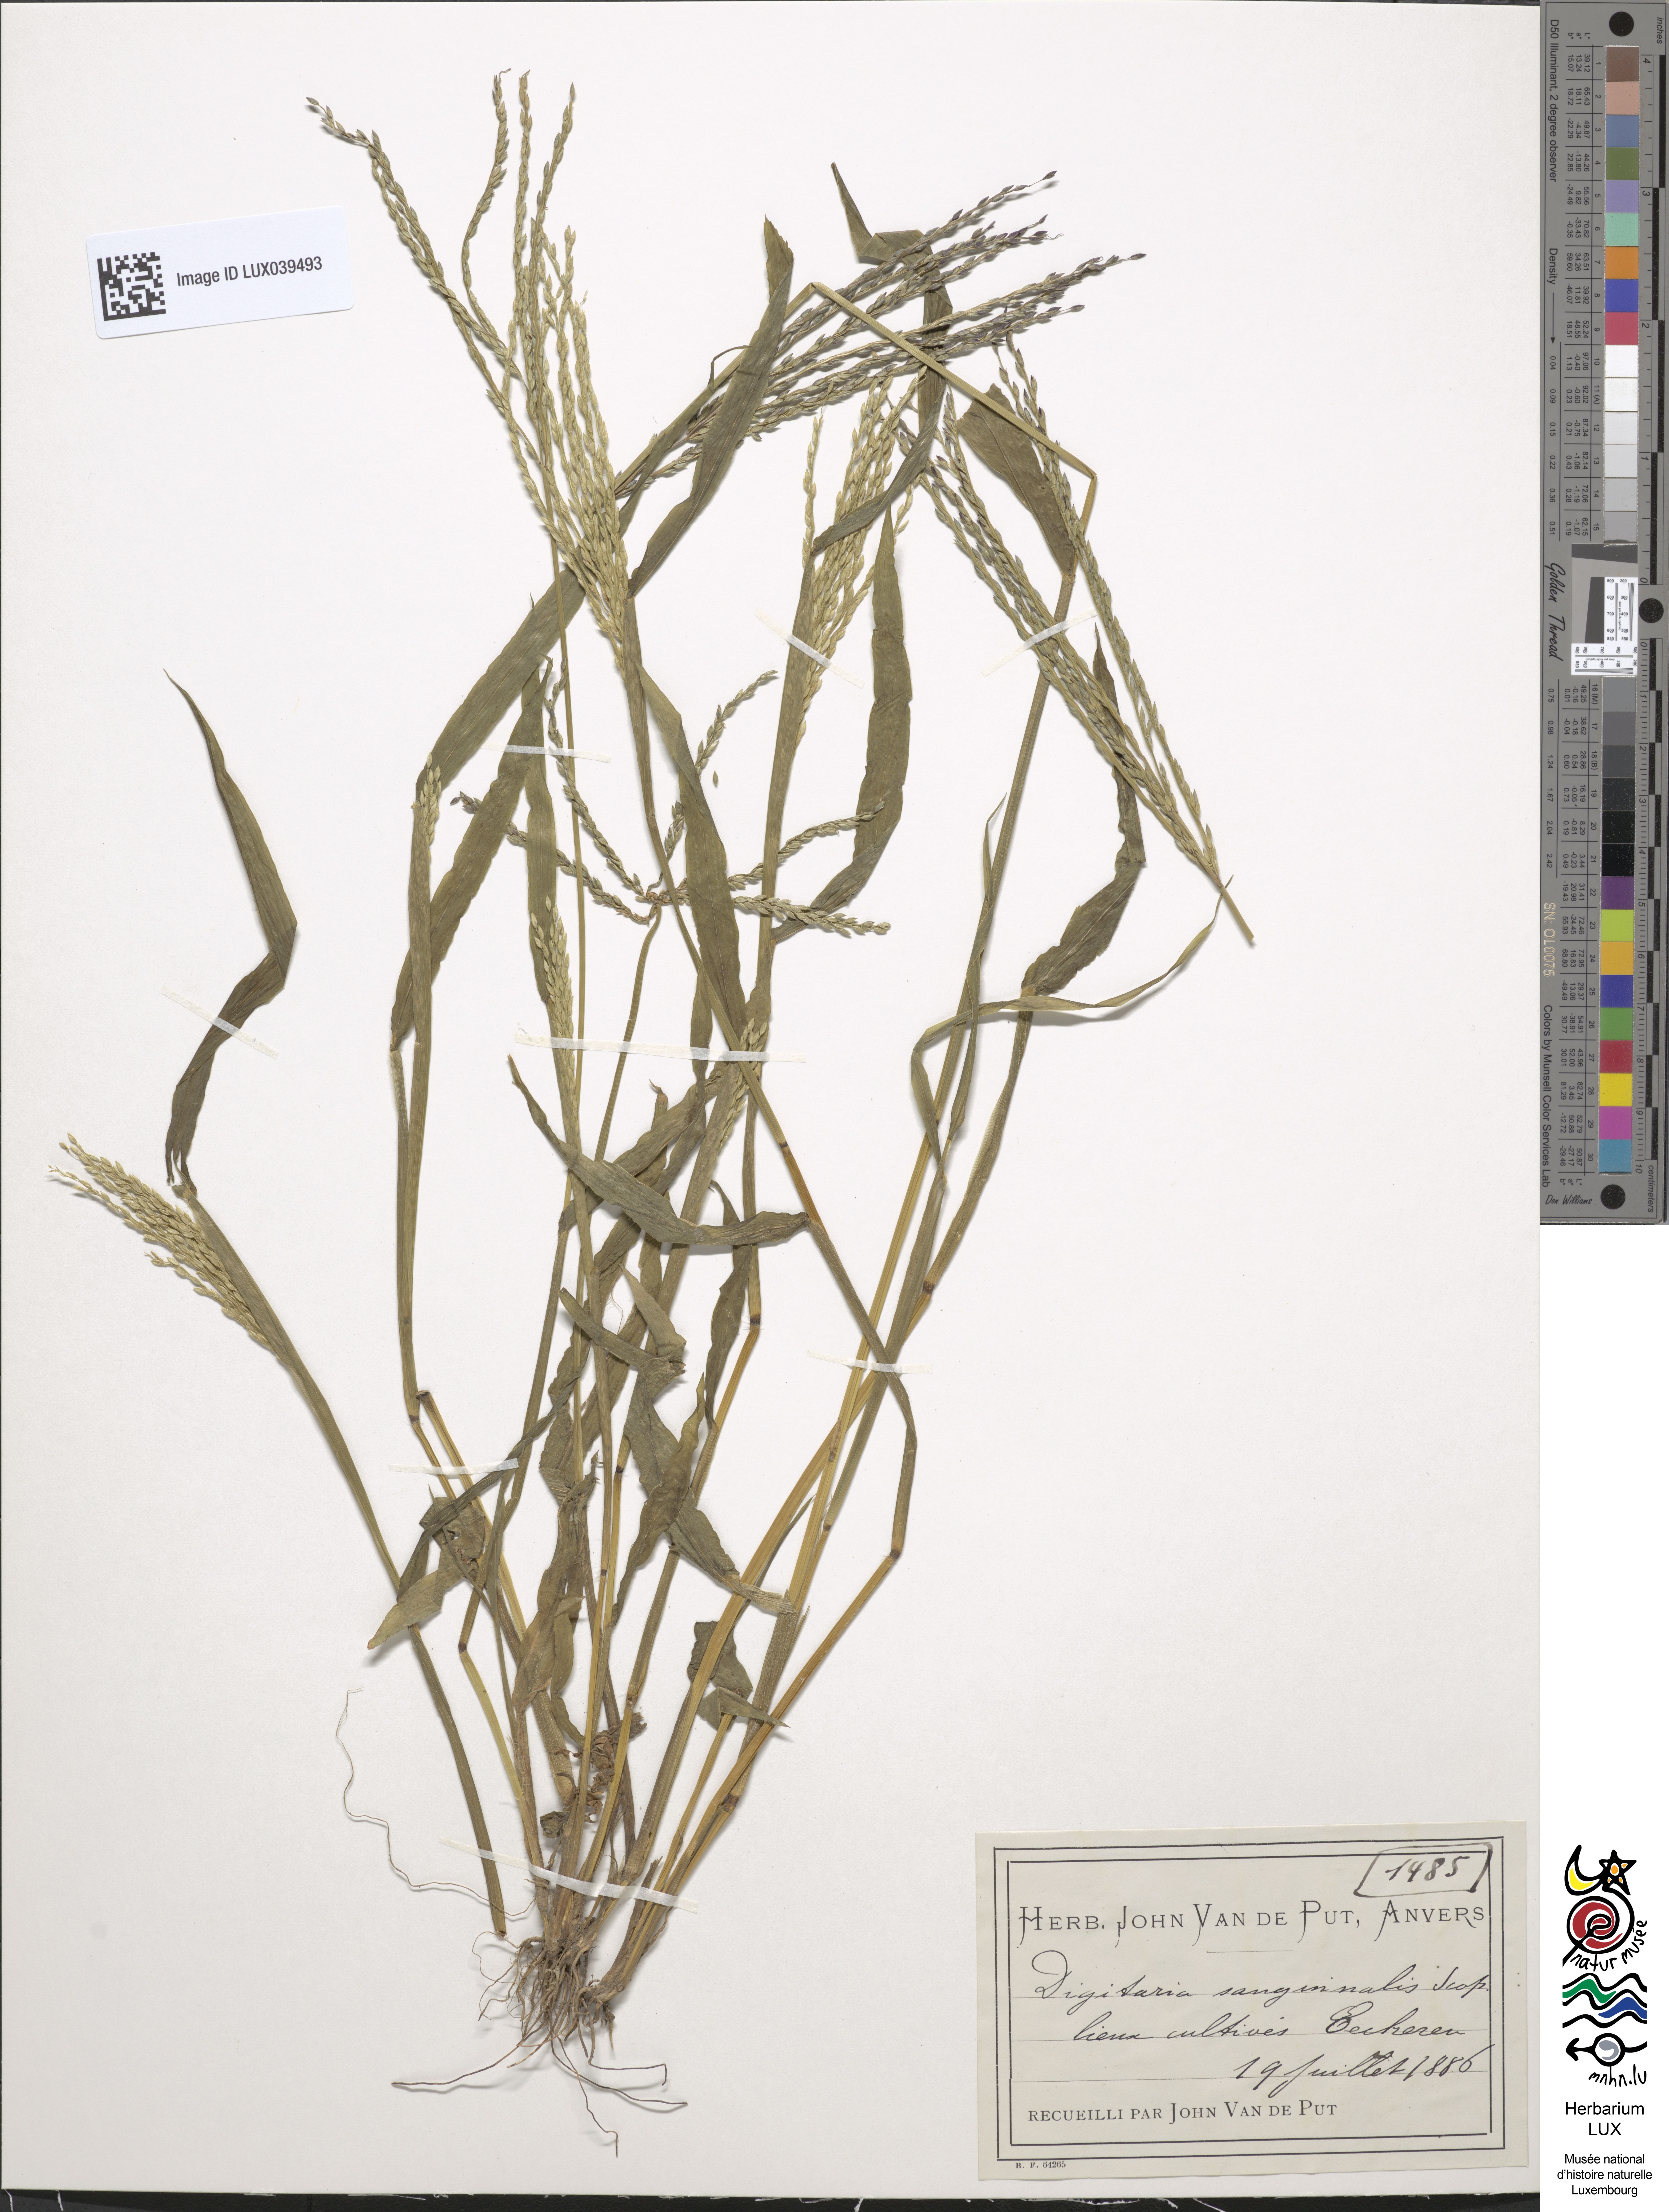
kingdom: Plantae
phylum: Tracheophyta
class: Liliopsida
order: Poales
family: Poaceae
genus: Digitaria
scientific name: Digitaria sanguinalis
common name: Hairy crabgrass
